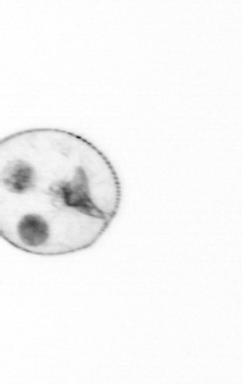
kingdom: Chromista
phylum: Myzozoa
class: Dinophyceae
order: Noctilucales
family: Noctilucaceae
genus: Noctiluca
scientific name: Noctiluca scintillans
